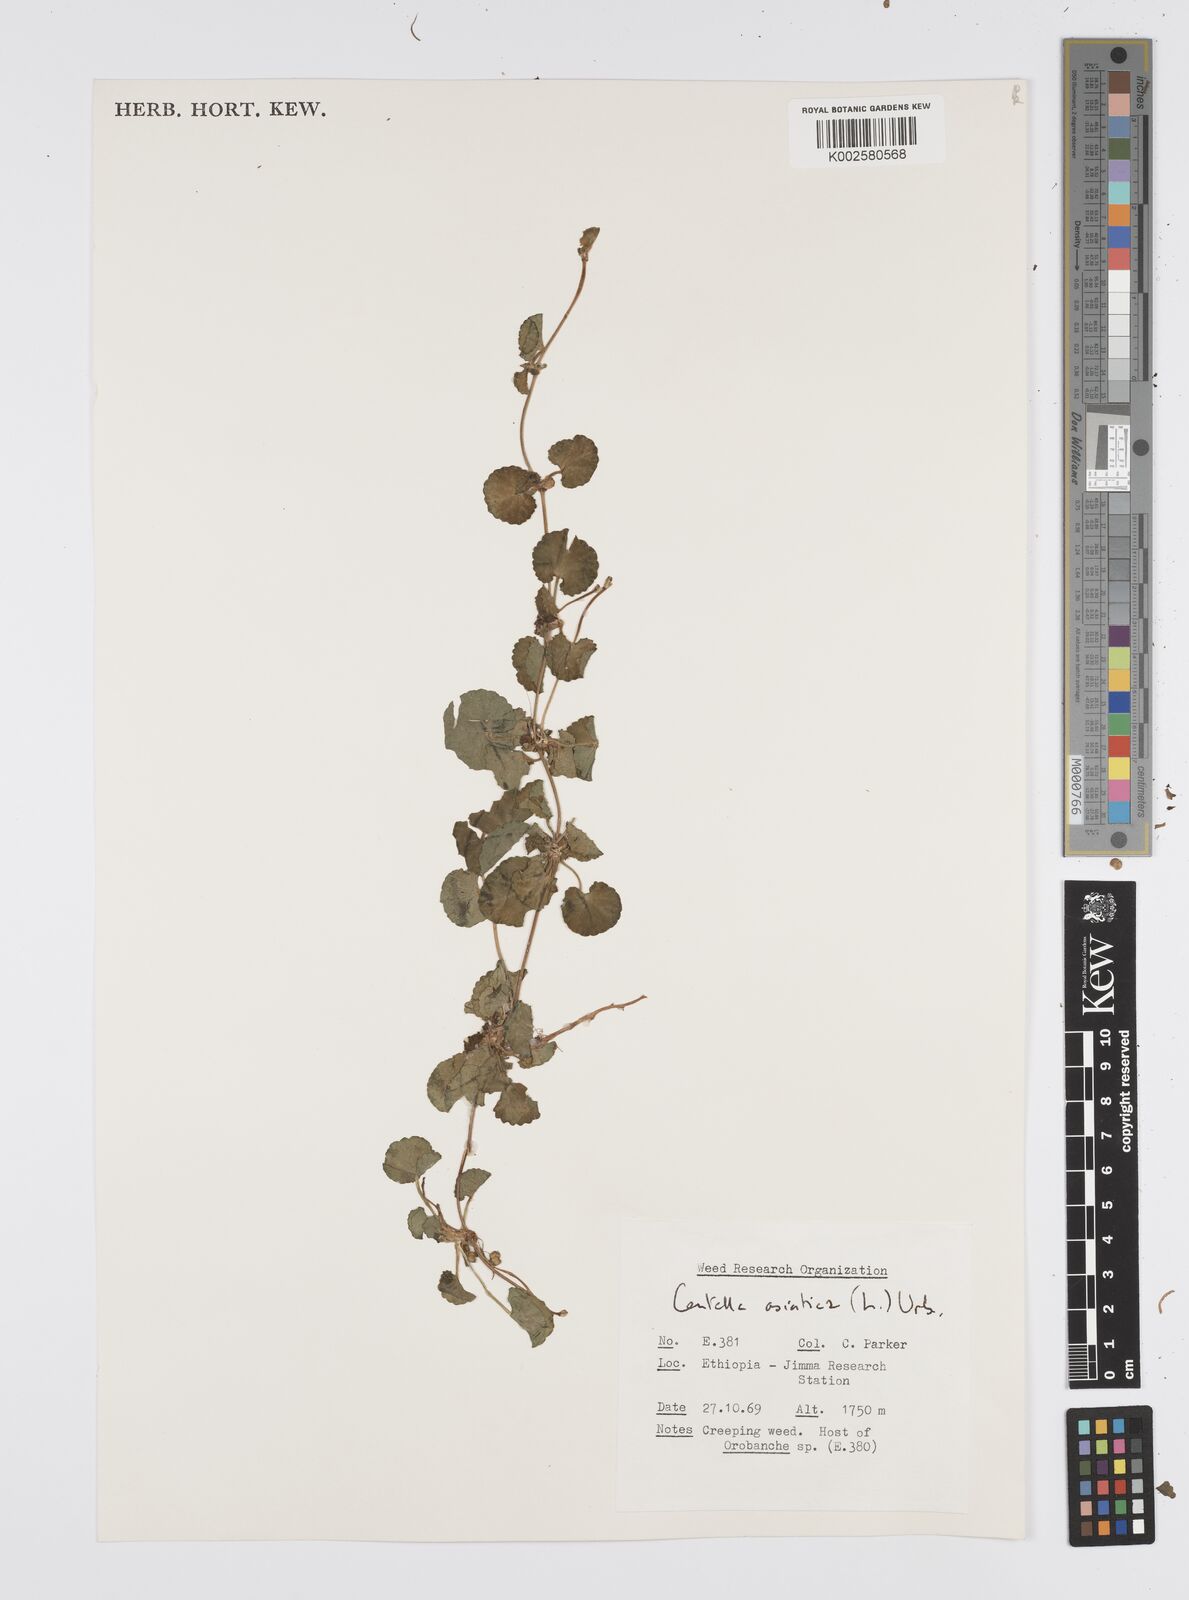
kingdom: Plantae
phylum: Tracheophyta
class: Magnoliopsida
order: Apiales
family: Apiaceae
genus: Centella
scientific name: Centella asiatica
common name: Spadeleaf
